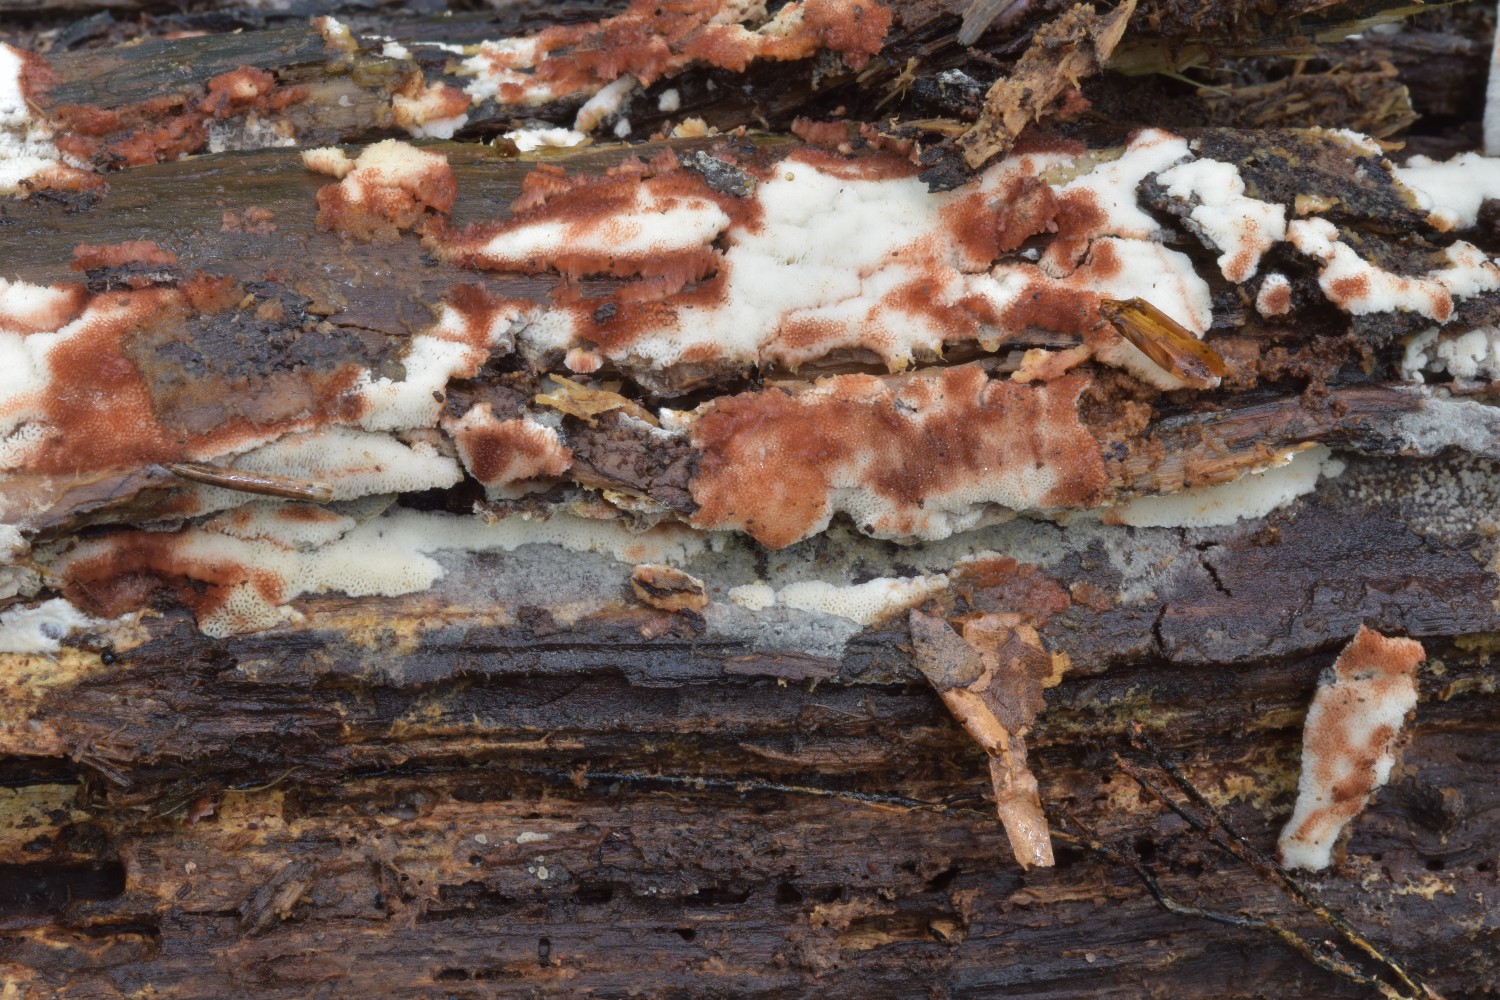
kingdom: Fungi
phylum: Basidiomycota
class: Agaricomycetes
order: Polyporales
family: Meripilaceae
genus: Rigidoporus
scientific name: Rigidoporus sanguinolentus
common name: blod-skorpeporesvamp
